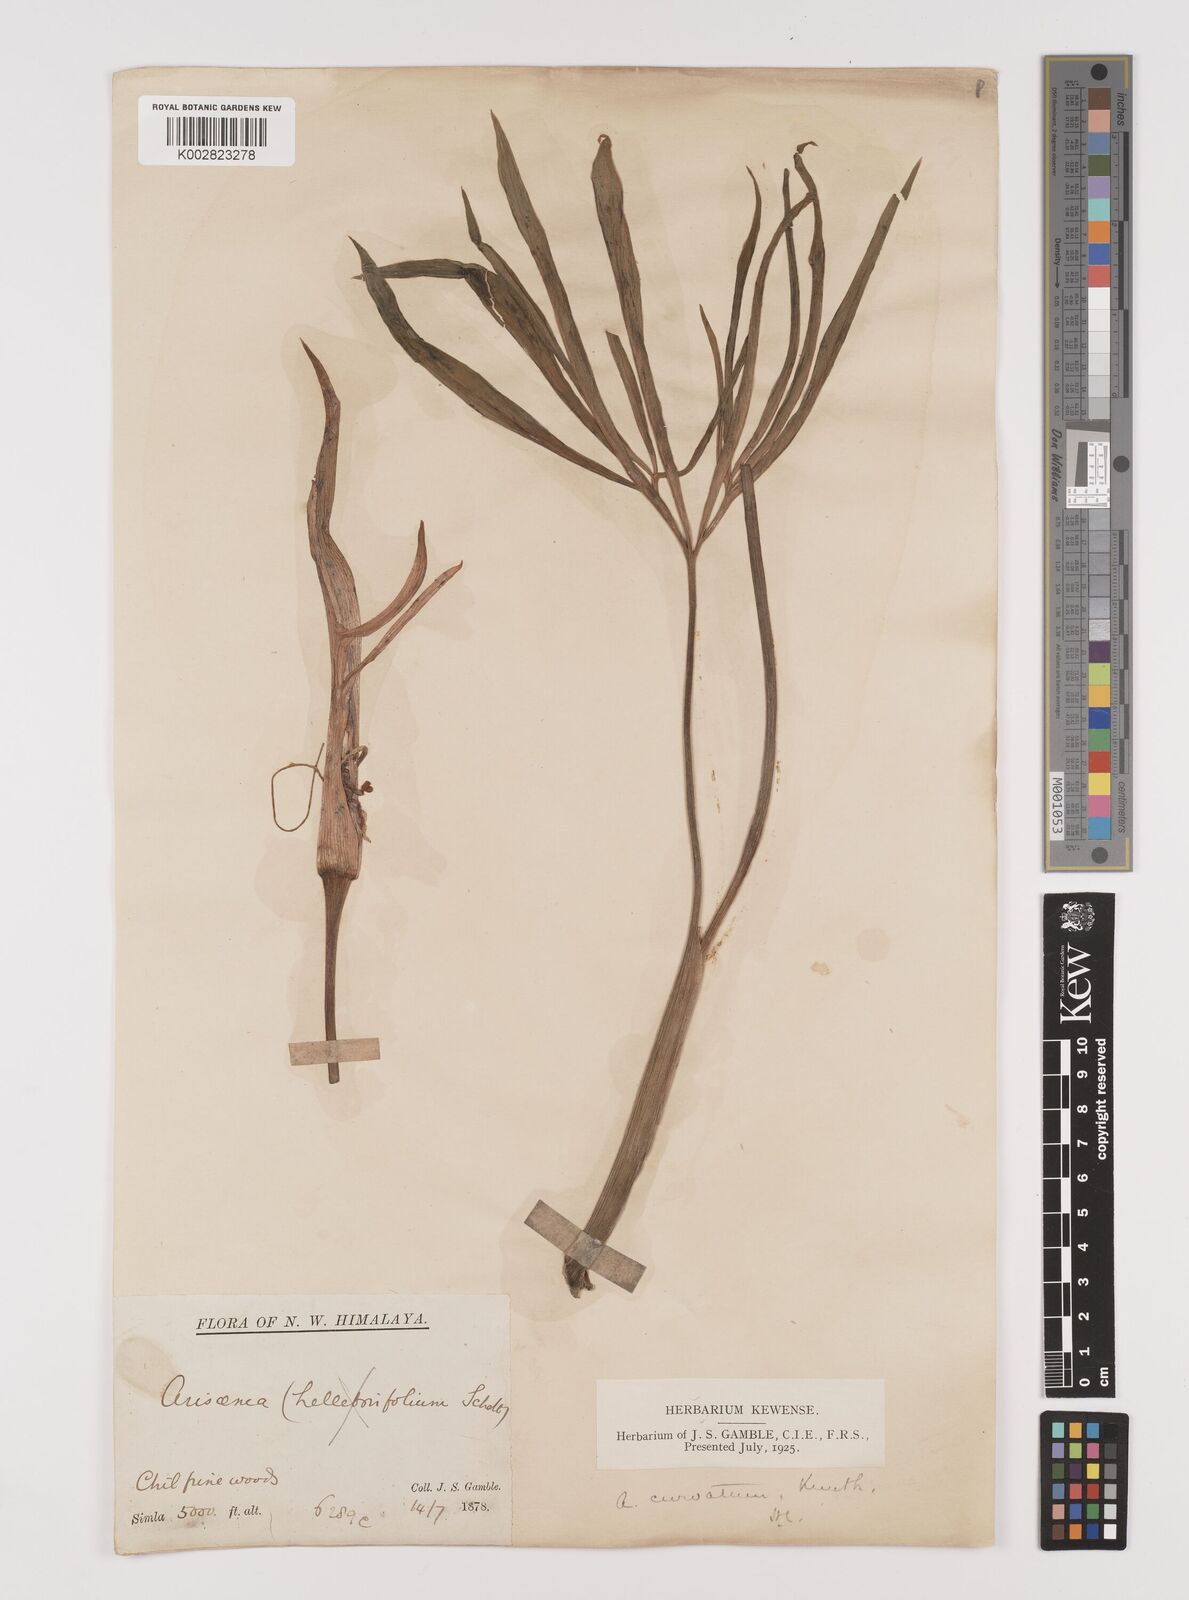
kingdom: Plantae
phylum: Tracheophyta
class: Liliopsida
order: Alismatales
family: Araceae
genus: Arisaema
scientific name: Arisaema tortuosum
